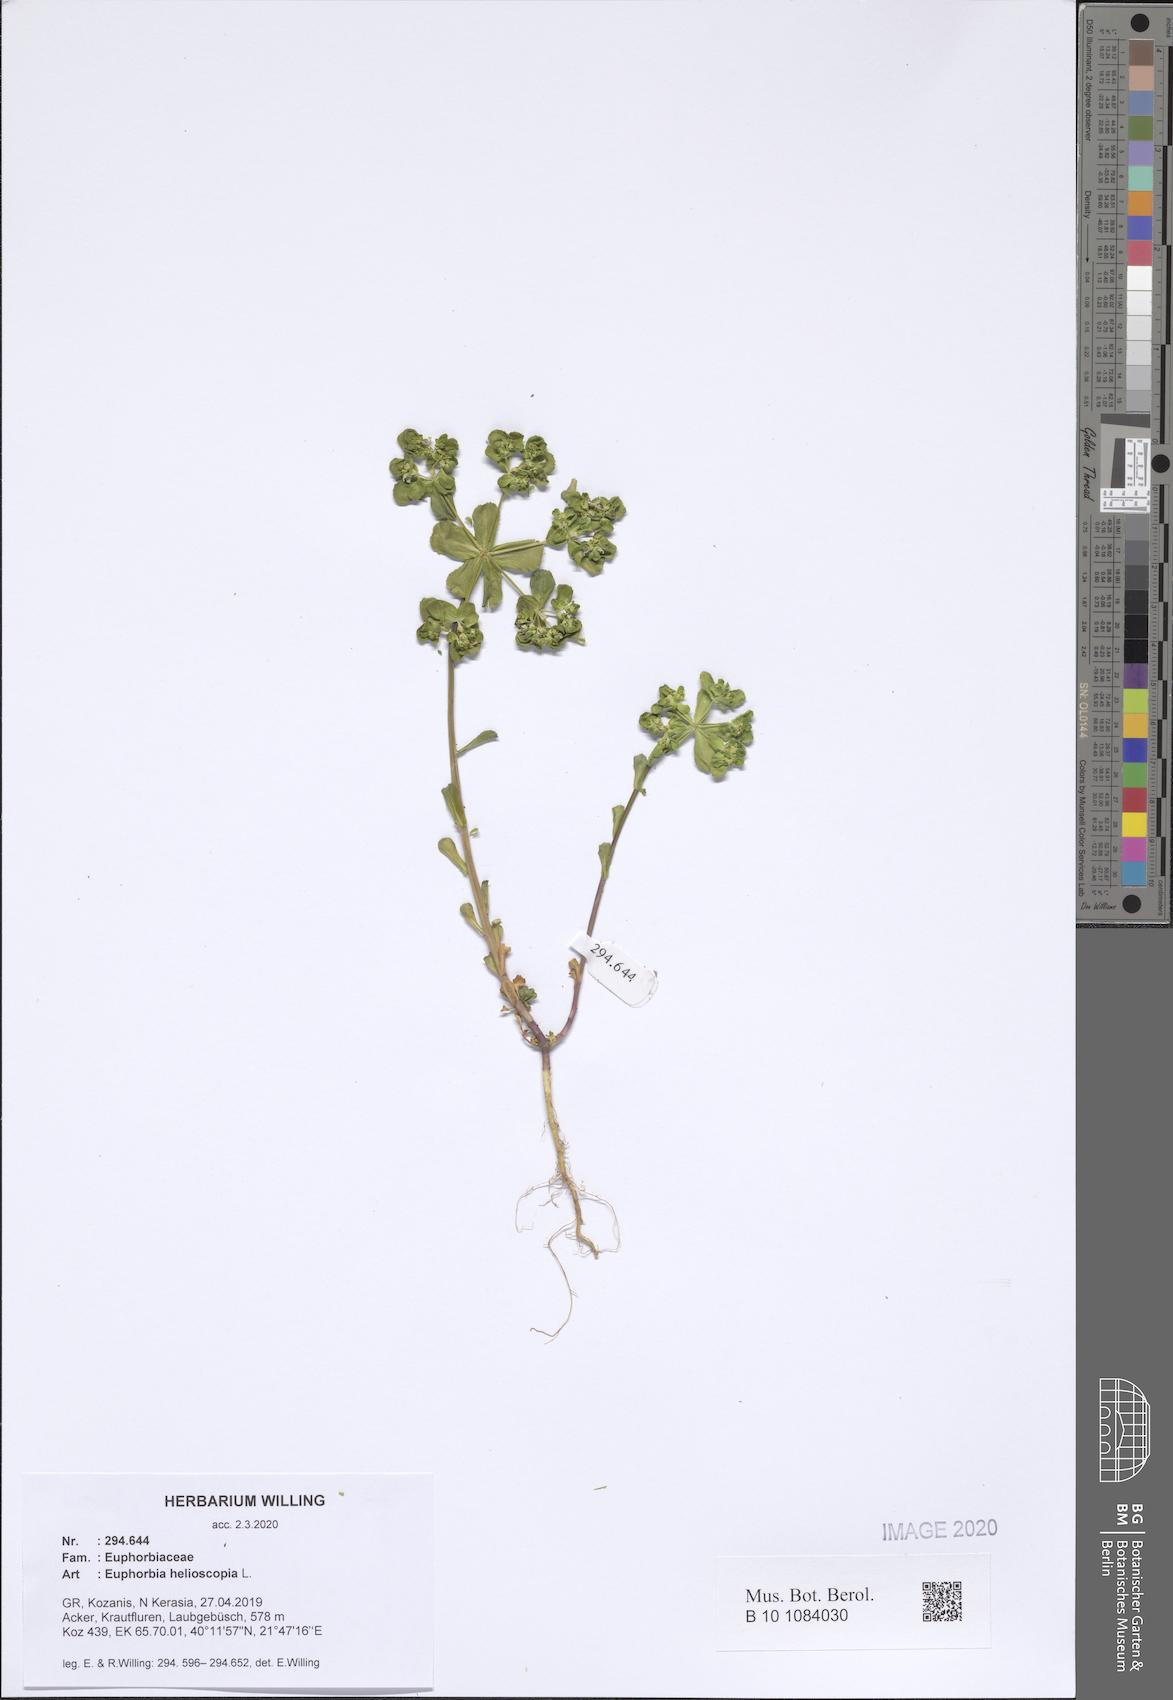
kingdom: Plantae
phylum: Tracheophyta
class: Magnoliopsida
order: Malpighiales
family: Euphorbiaceae
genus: Euphorbia
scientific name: Euphorbia helioscopia
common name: Sun spurge
